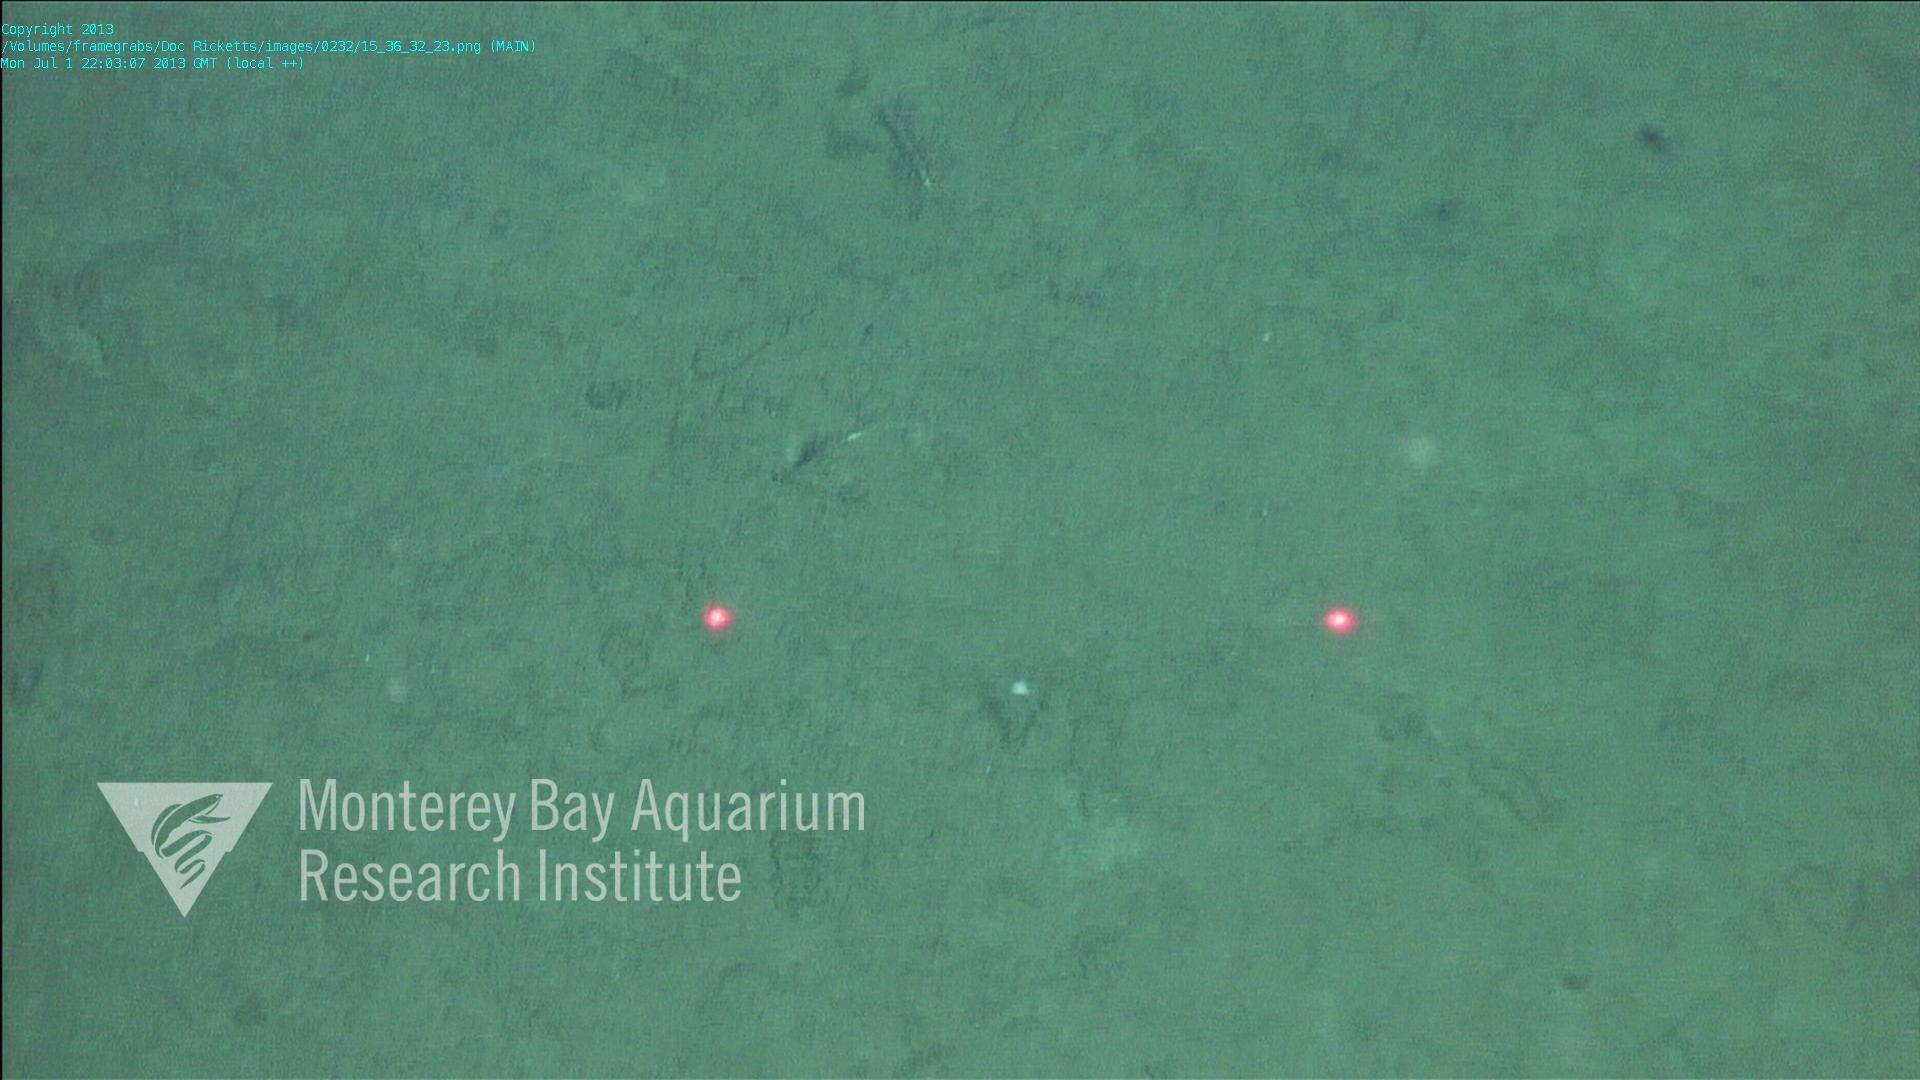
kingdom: Animalia
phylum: Porifera
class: Demospongiae
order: Poecilosclerida
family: Cladorhizidae
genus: Cladorhiza
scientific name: Cladorhiza
